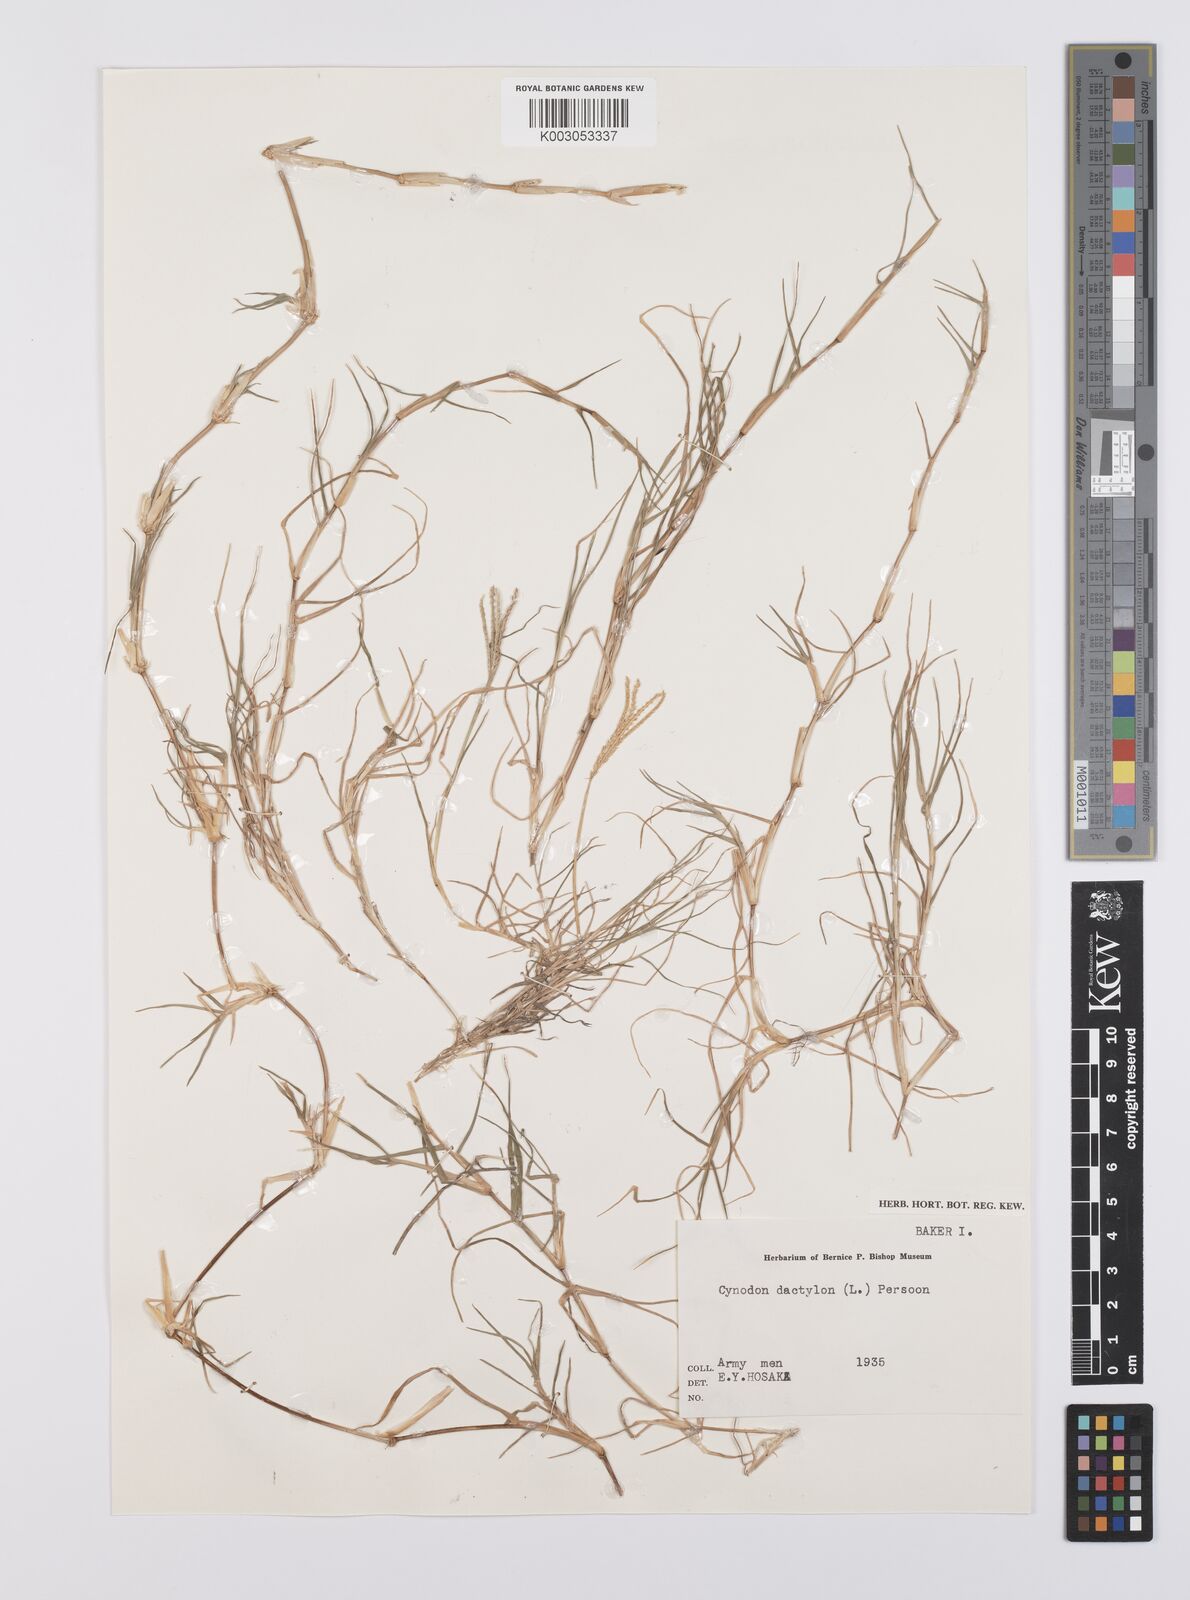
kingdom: Plantae
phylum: Tracheophyta
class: Liliopsida
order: Poales
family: Poaceae
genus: Cynodon
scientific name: Cynodon dactylon
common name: Bermuda grass
